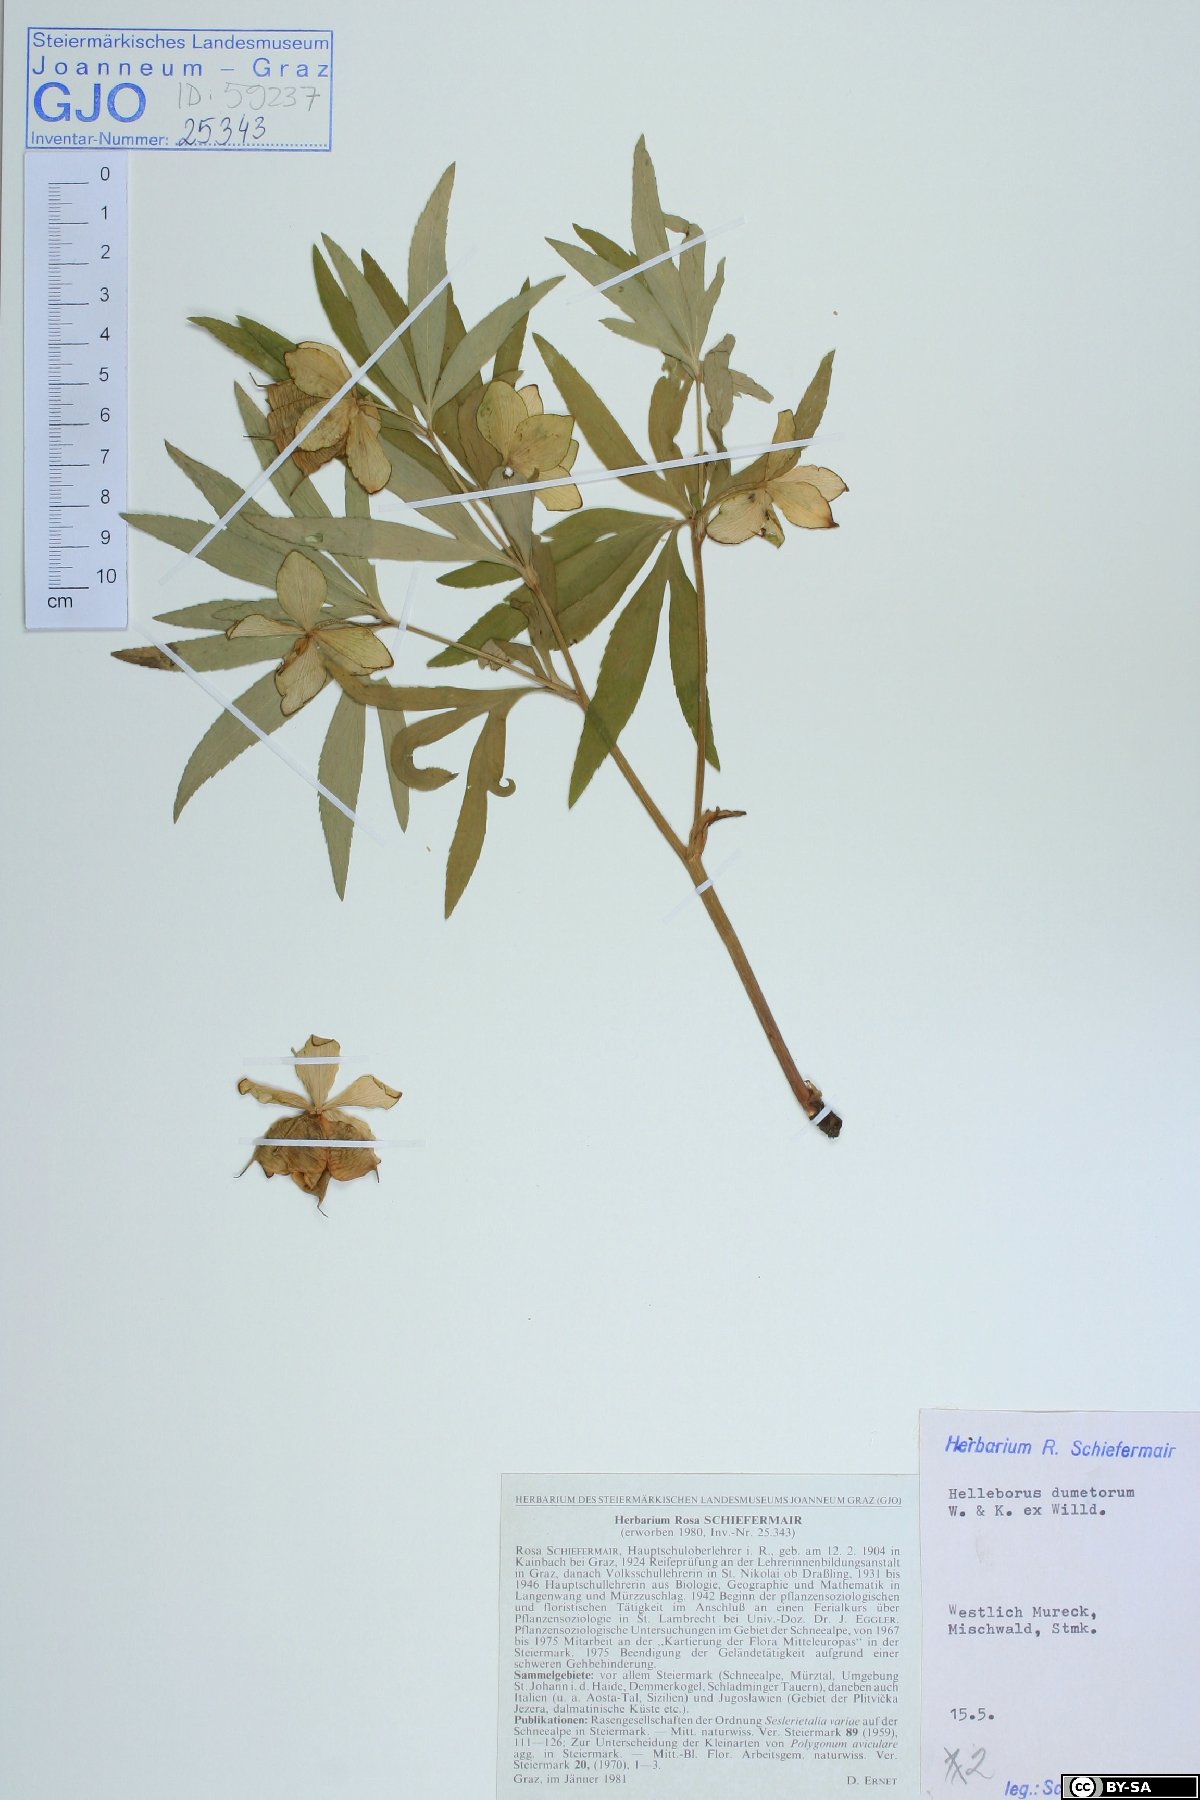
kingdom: Plantae
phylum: Tracheophyta
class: Magnoliopsida
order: Ranunculales
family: Ranunculaceae
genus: Helleborus
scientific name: Helleborus dumetorum
